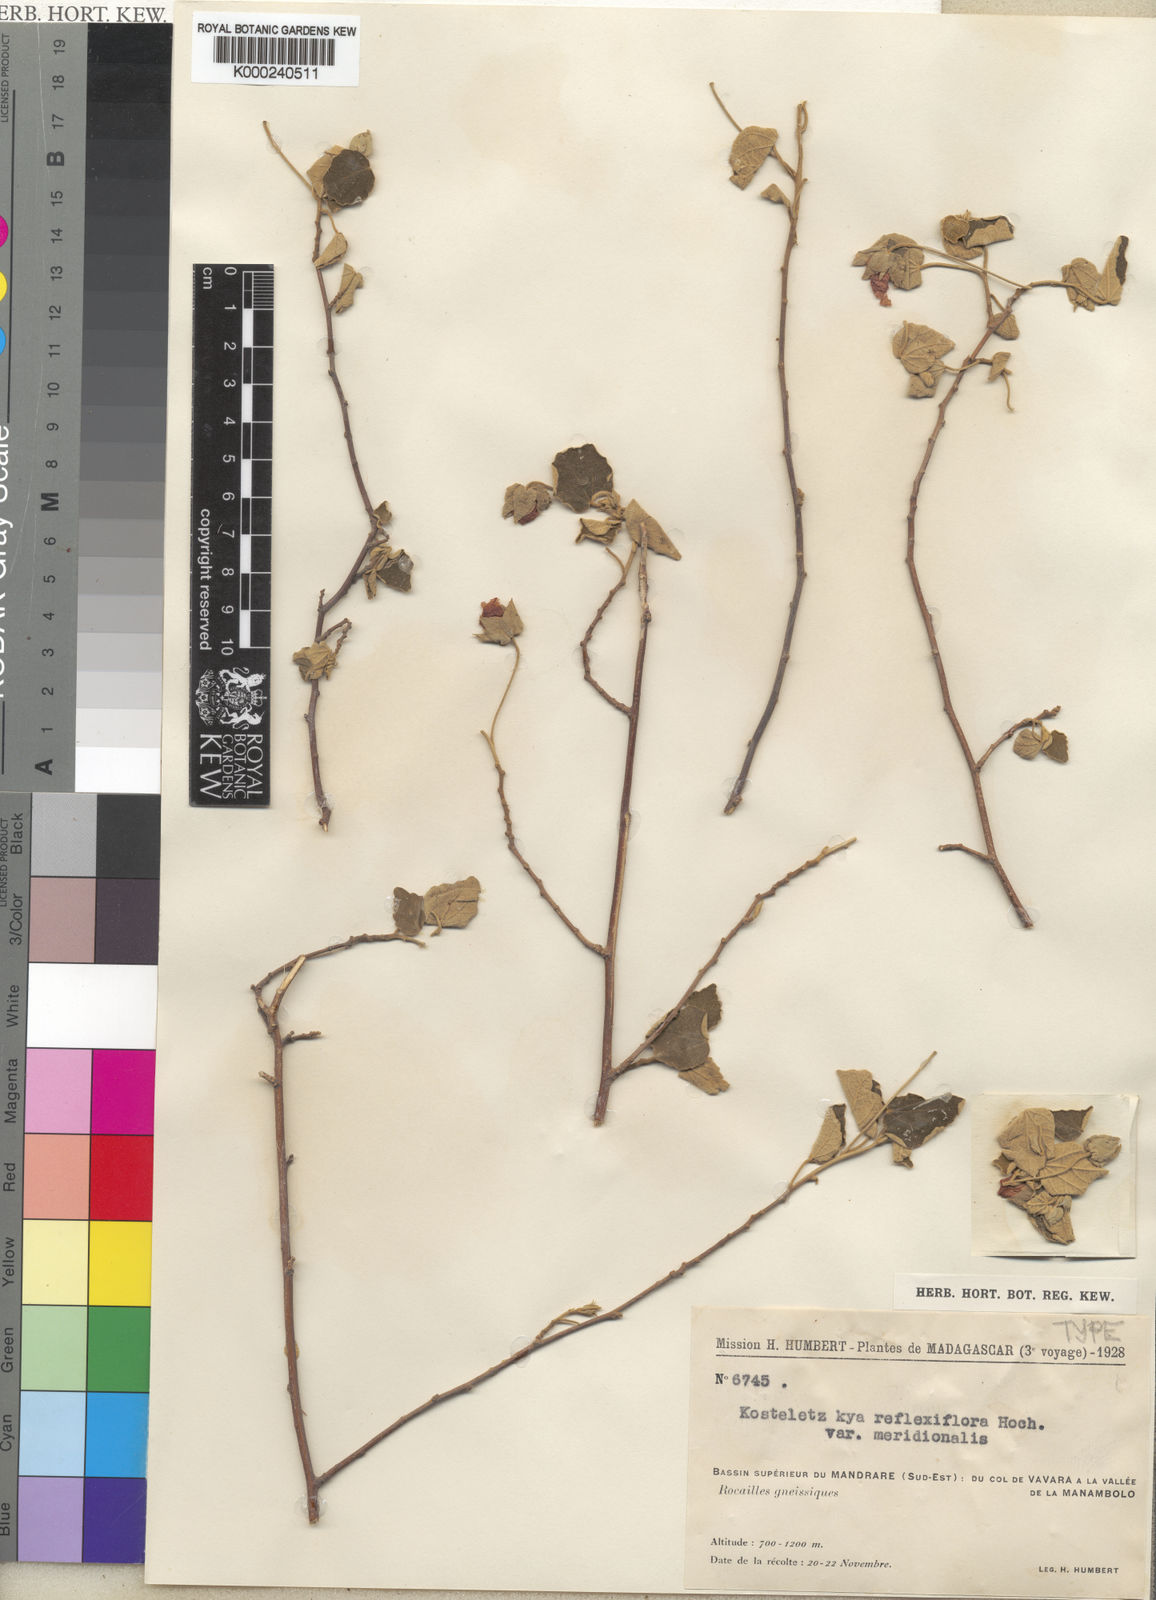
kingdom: Plantae
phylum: Tracheophyta
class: Magnoliopsida
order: Malvales
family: Malvaceae
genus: Perrierophytum
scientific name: Perrierophytum reflexiflorum
